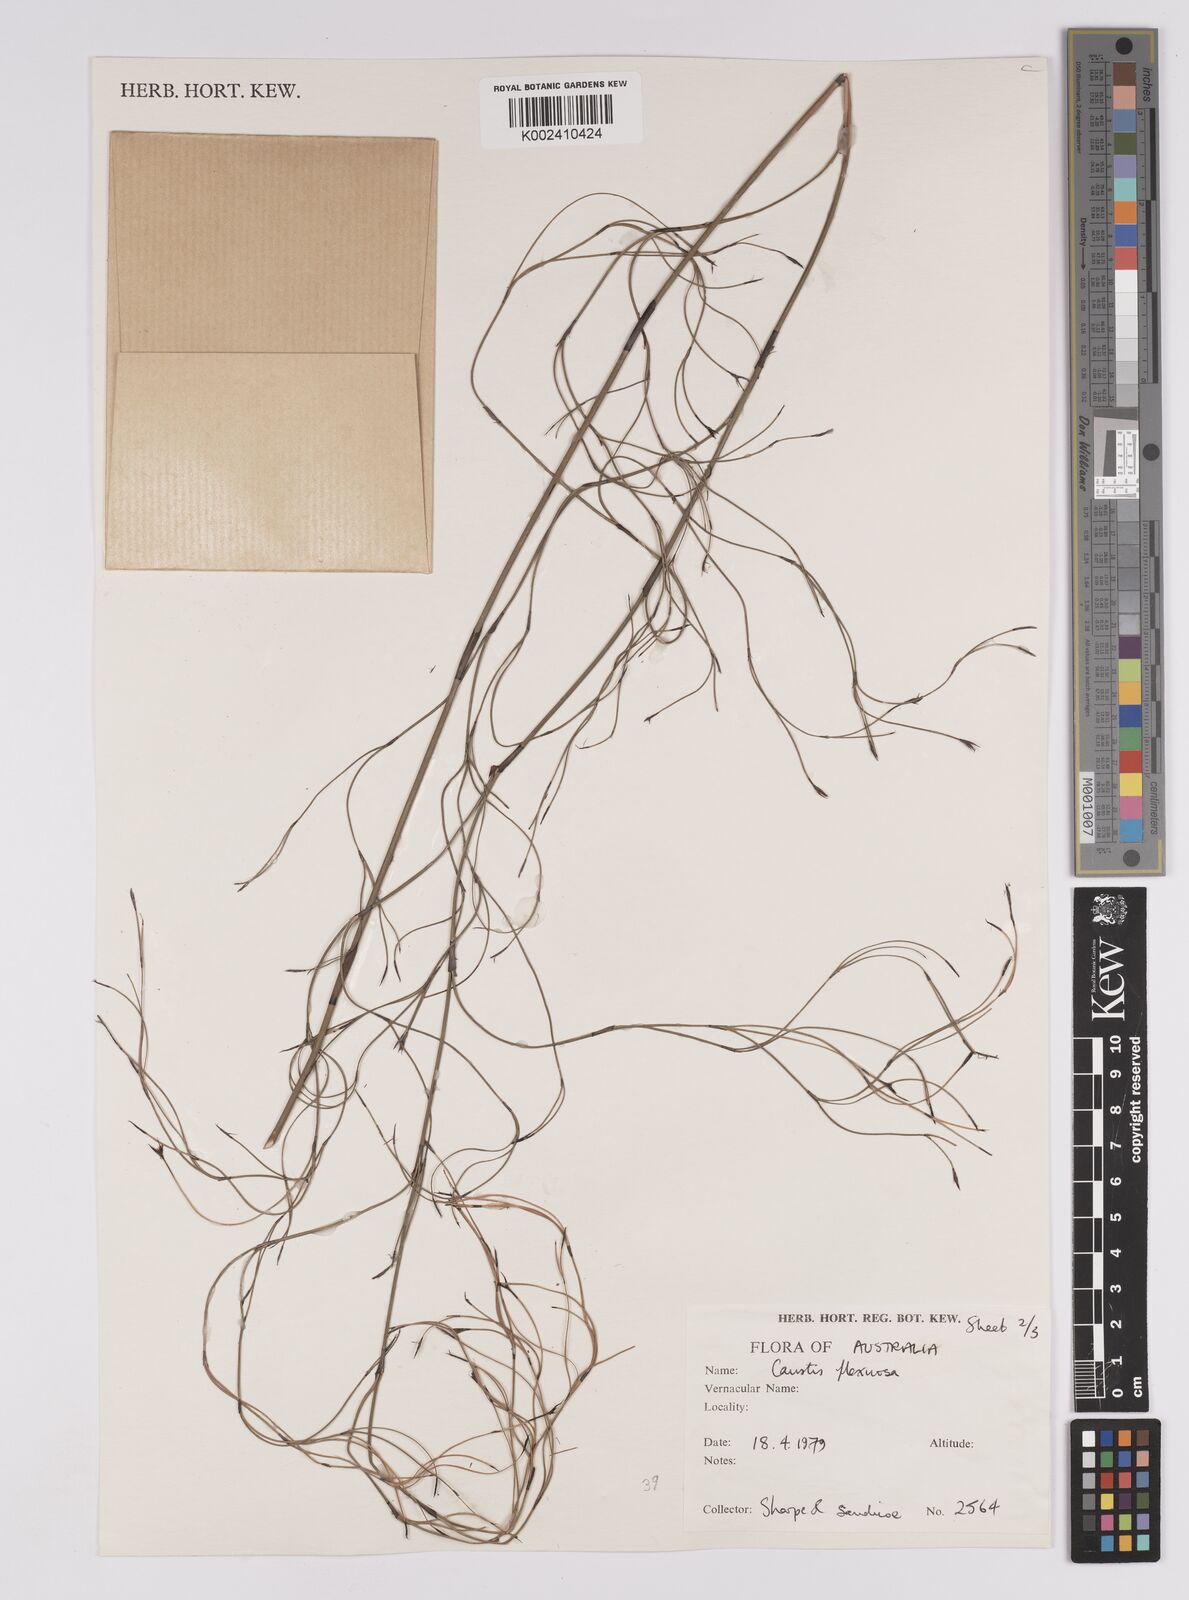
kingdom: Plantae
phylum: Tracheophyta
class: Liliopsida
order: Poales
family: Cyperaceae
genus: Caustis
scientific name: Caustis flexuosa
